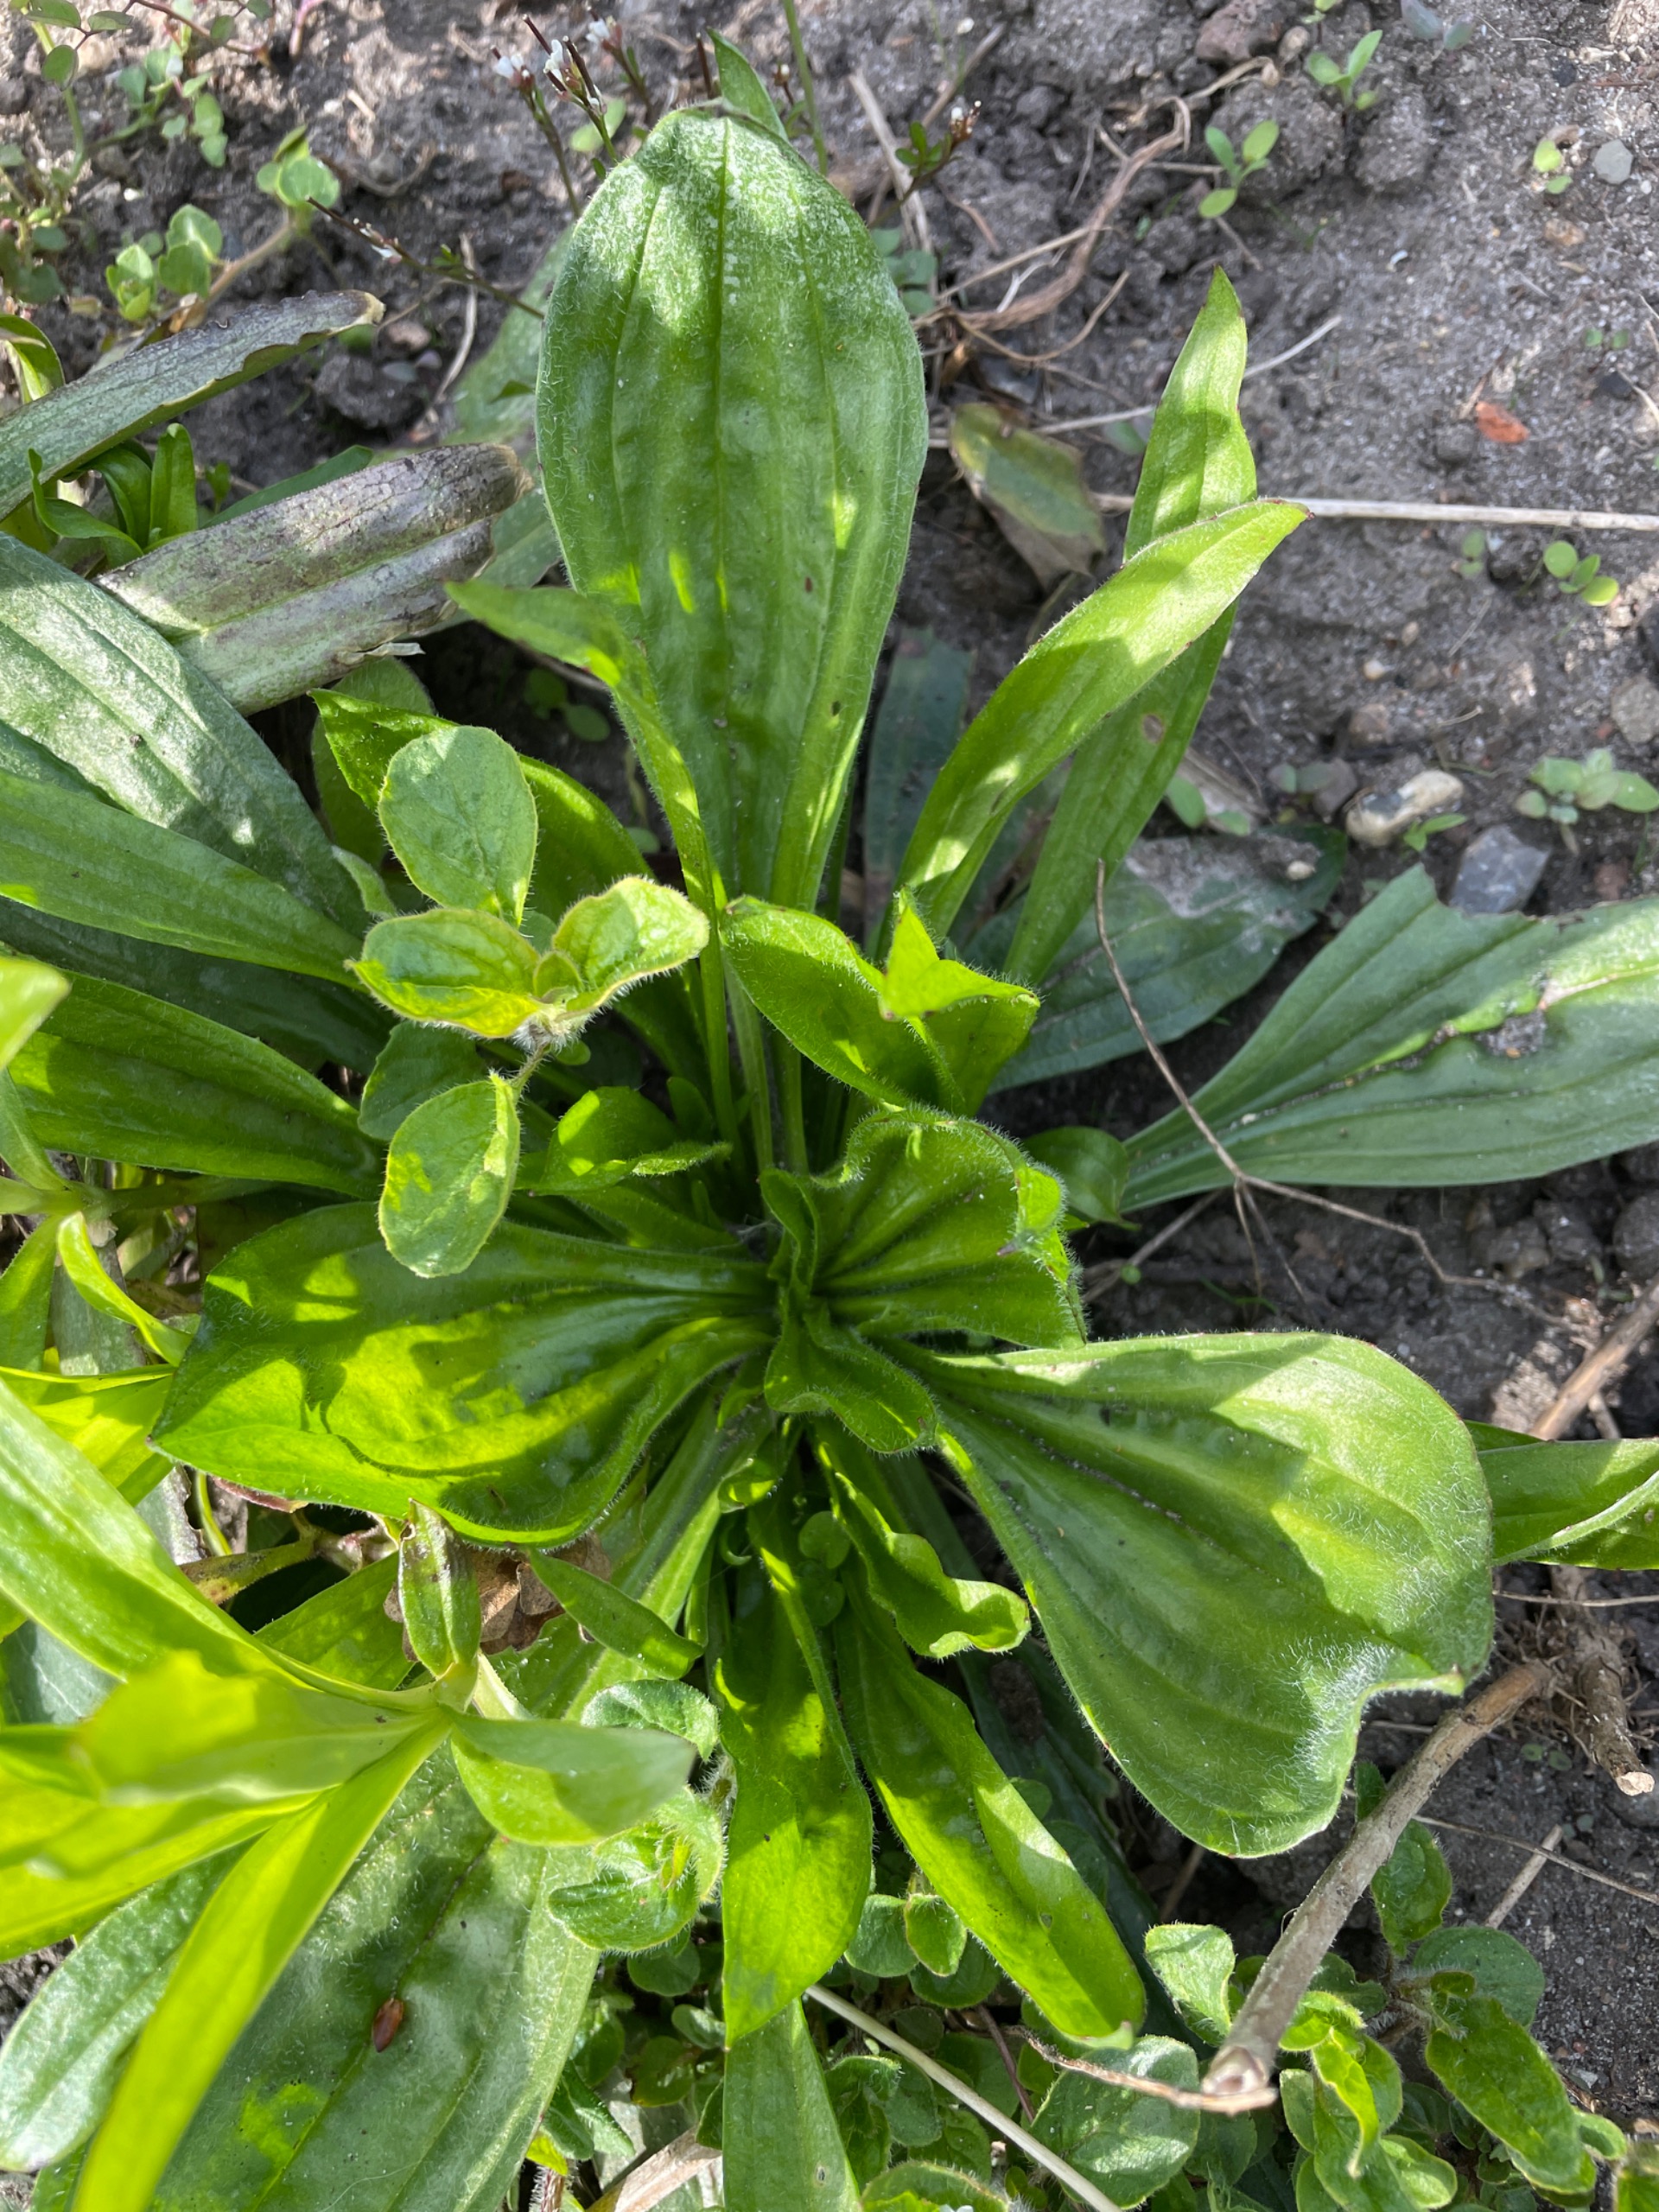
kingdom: Plantae
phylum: Tracheophyta
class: Magnoliopsida
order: Lamiales
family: Plantaginaceae
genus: Plantago
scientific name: Plantago lanceolata
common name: Lancet-vejbred
